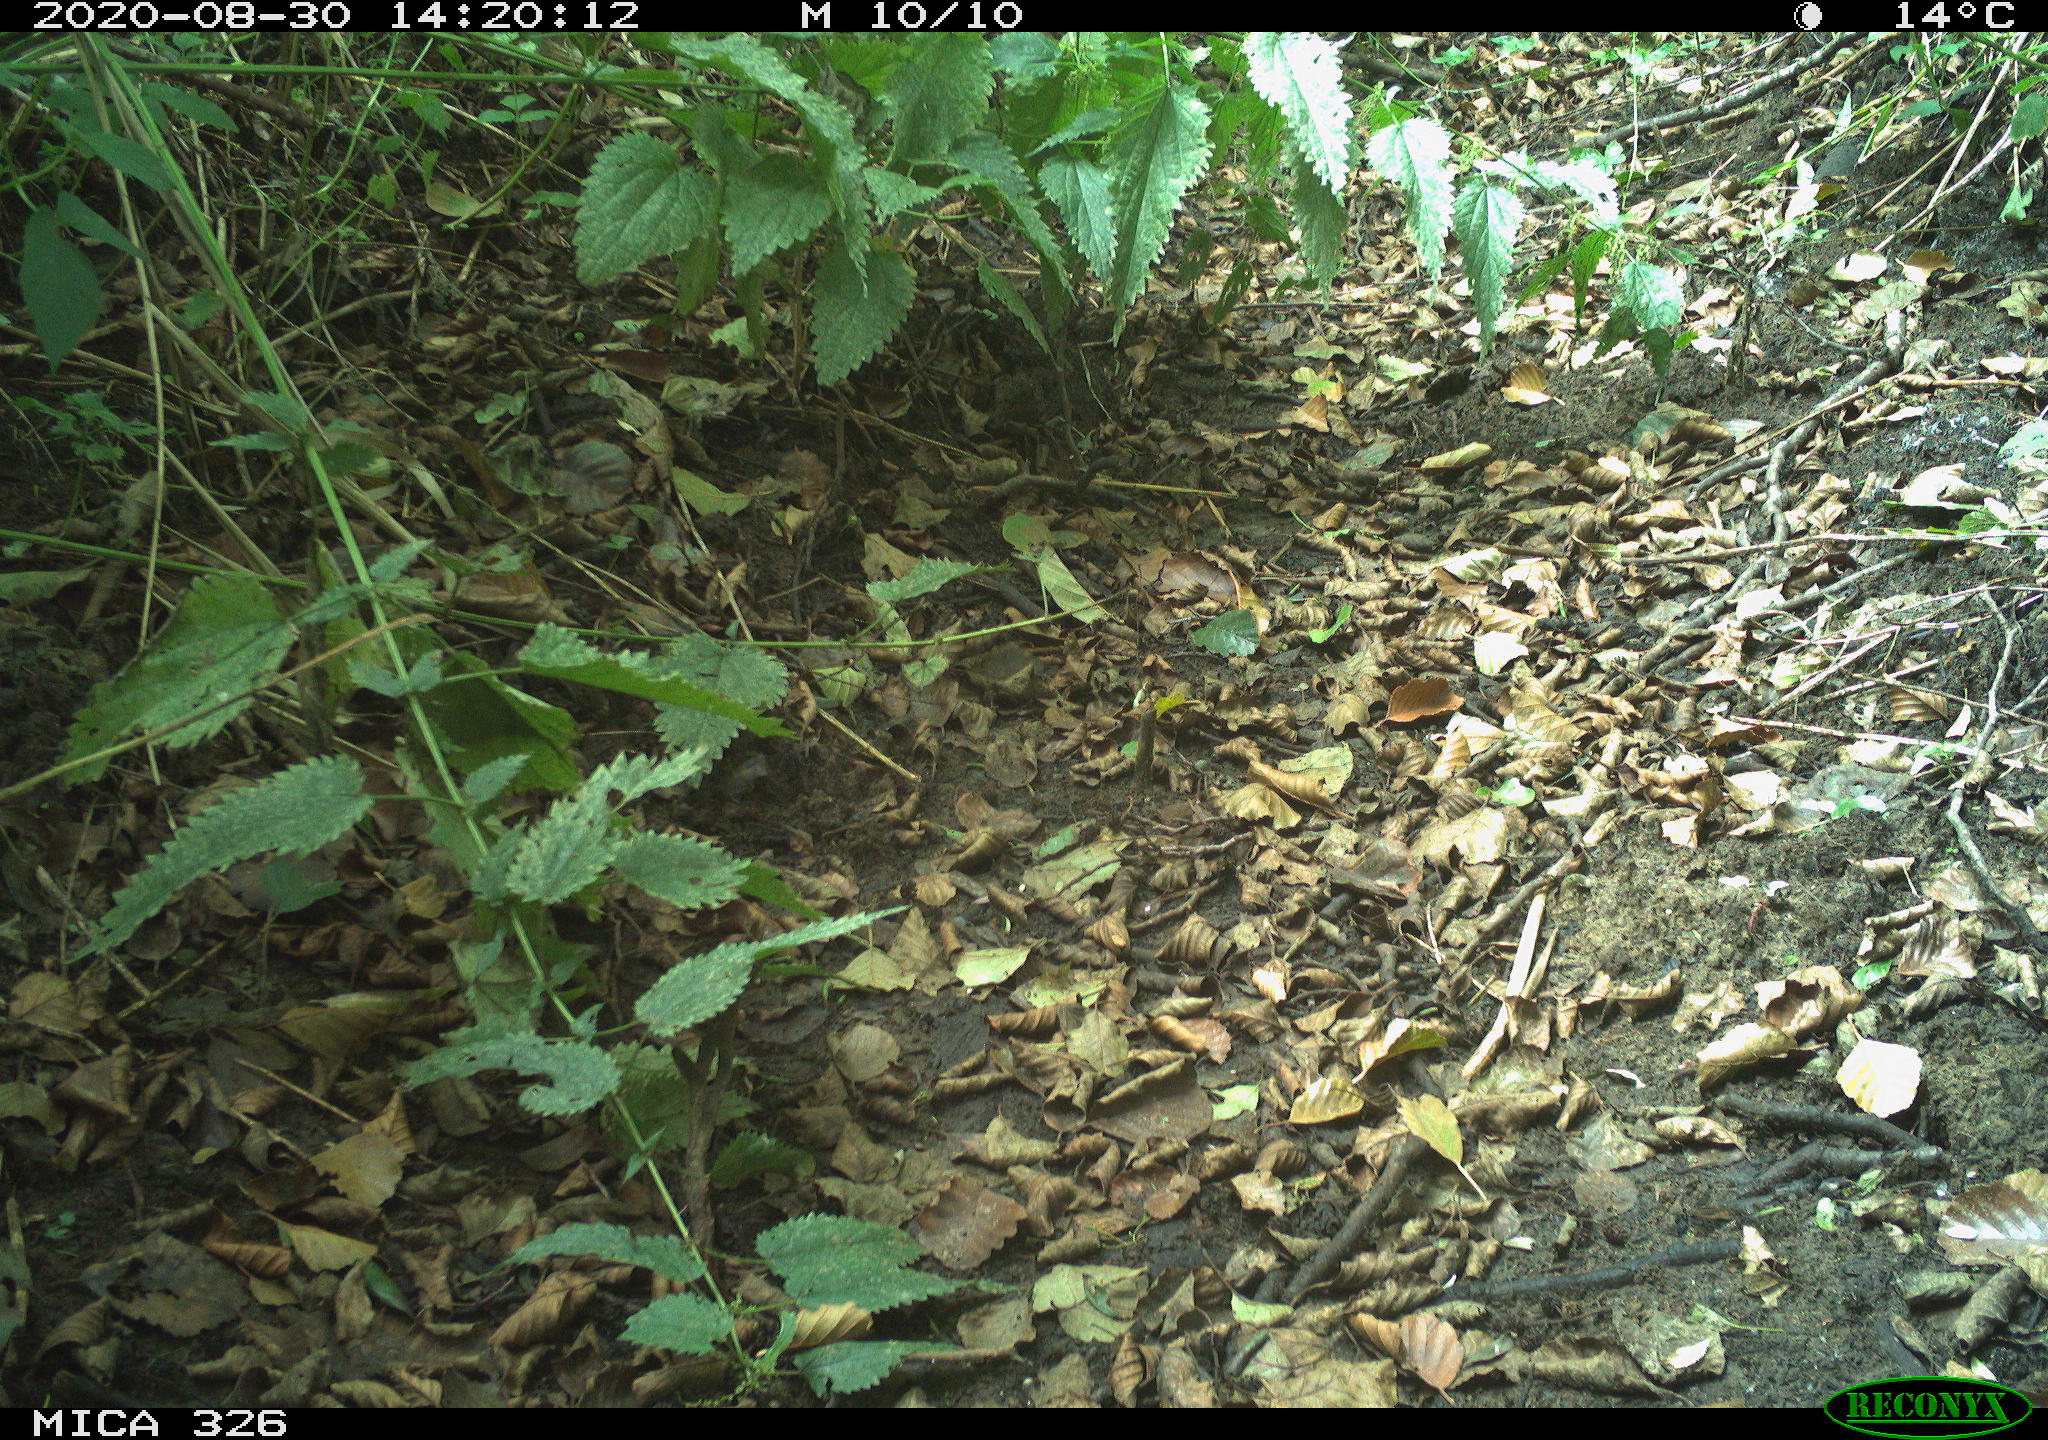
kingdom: Animalia
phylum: Chordata
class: Mammalia
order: Lagomorpha
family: Leporidae
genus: Lepus
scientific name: Lepus europaeus
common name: European hare
